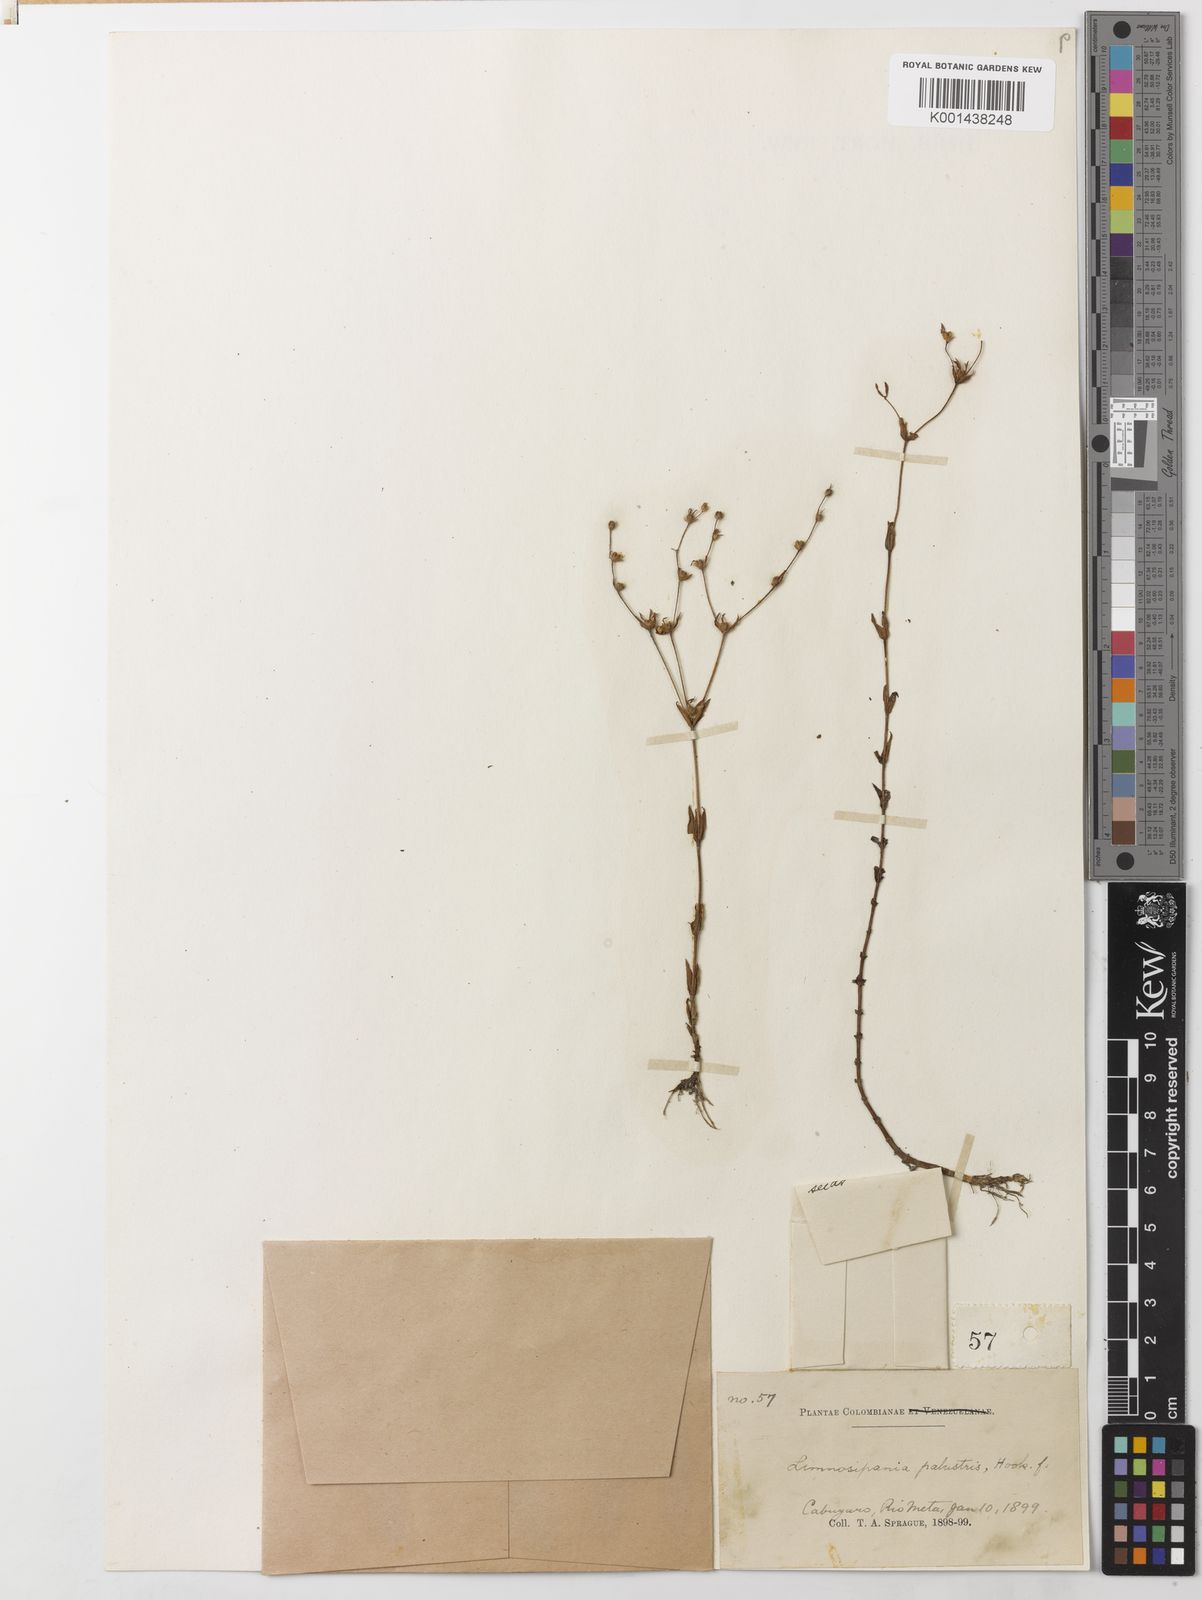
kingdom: Plantae
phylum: Tracheophyta
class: Magnoliopsida
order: Gentianales
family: Rubiaceae
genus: Limnosipanea
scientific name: Limnosipanea palustris
